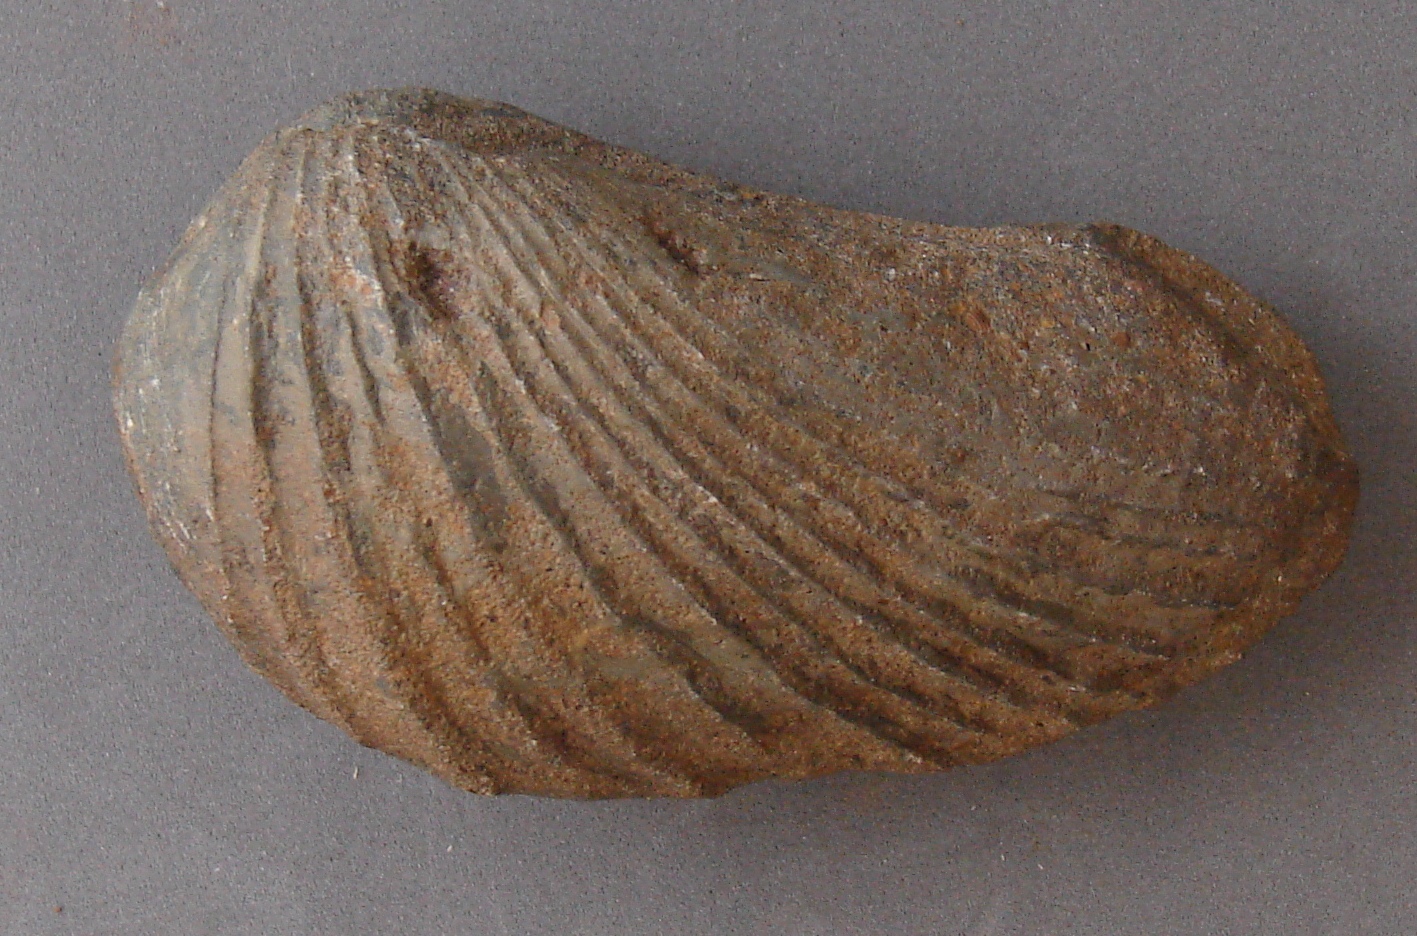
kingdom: Animalia
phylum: Mollusca
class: Bivalvia
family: Pholadomyidae
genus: Pholadomya
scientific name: Pholadomya fidicula
